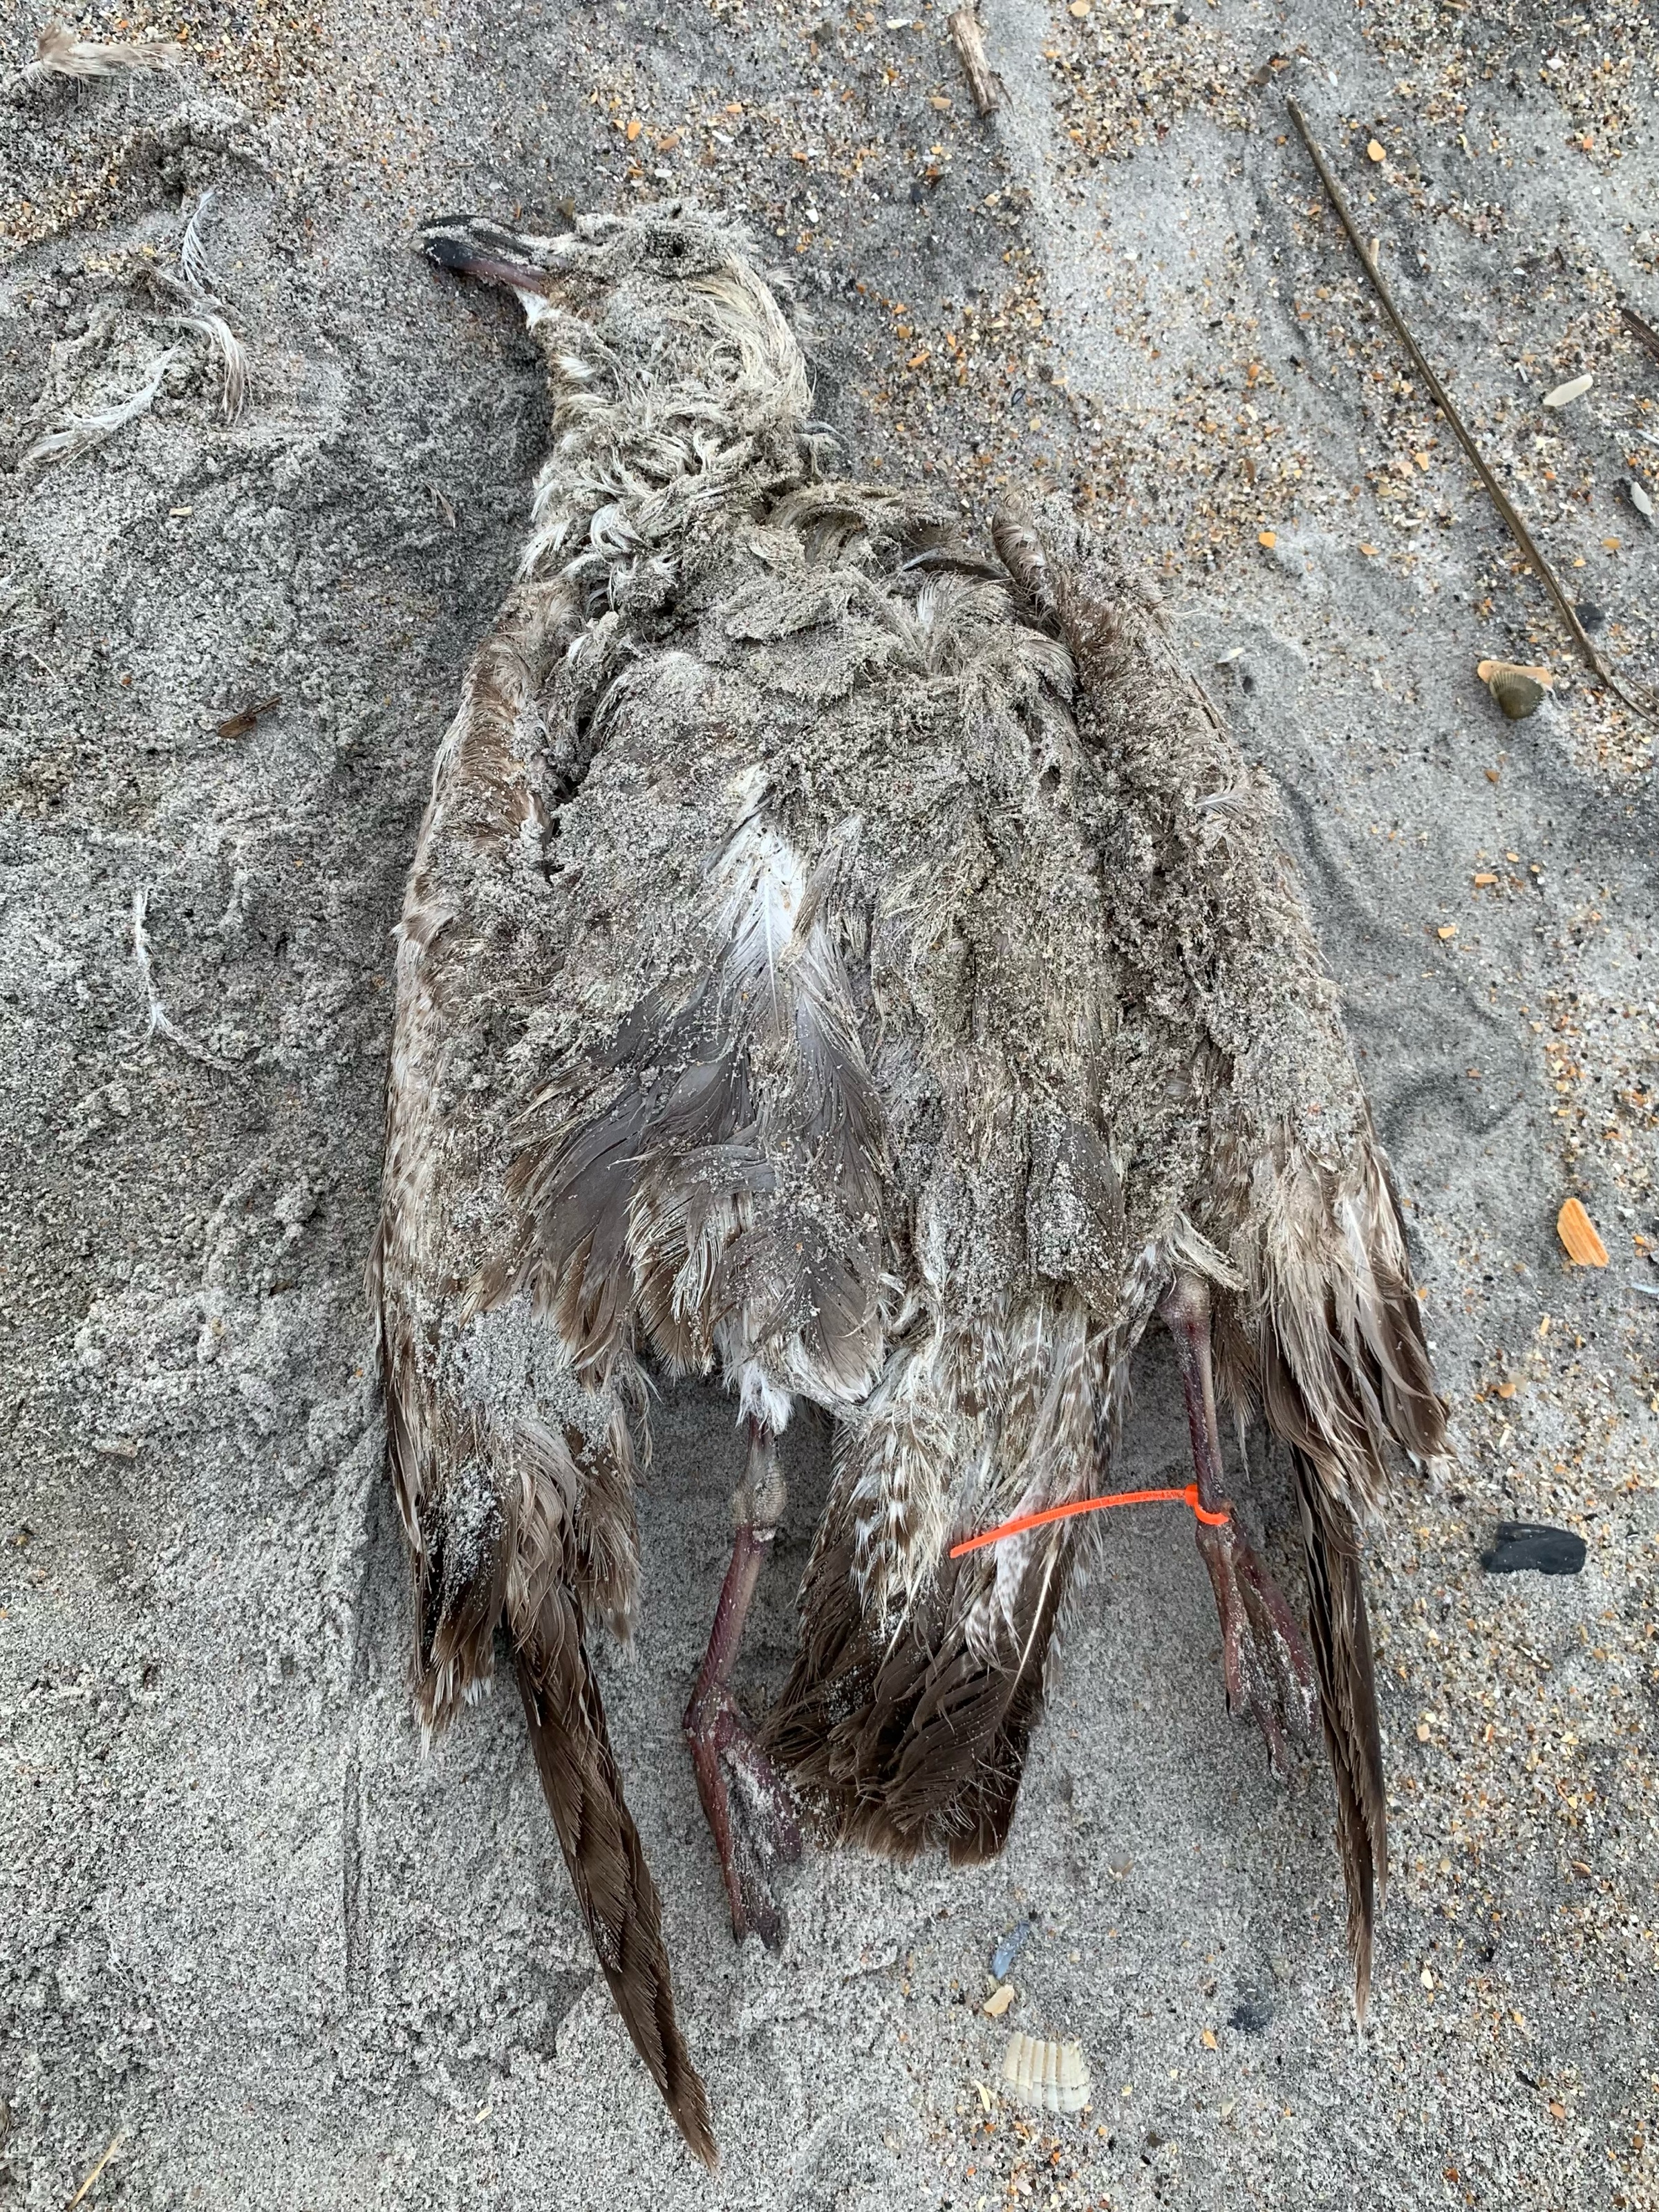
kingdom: Animalia
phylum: Chordata
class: Aves
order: Charadriiformes
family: Laridae
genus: Larus
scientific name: Larus delawarensis
